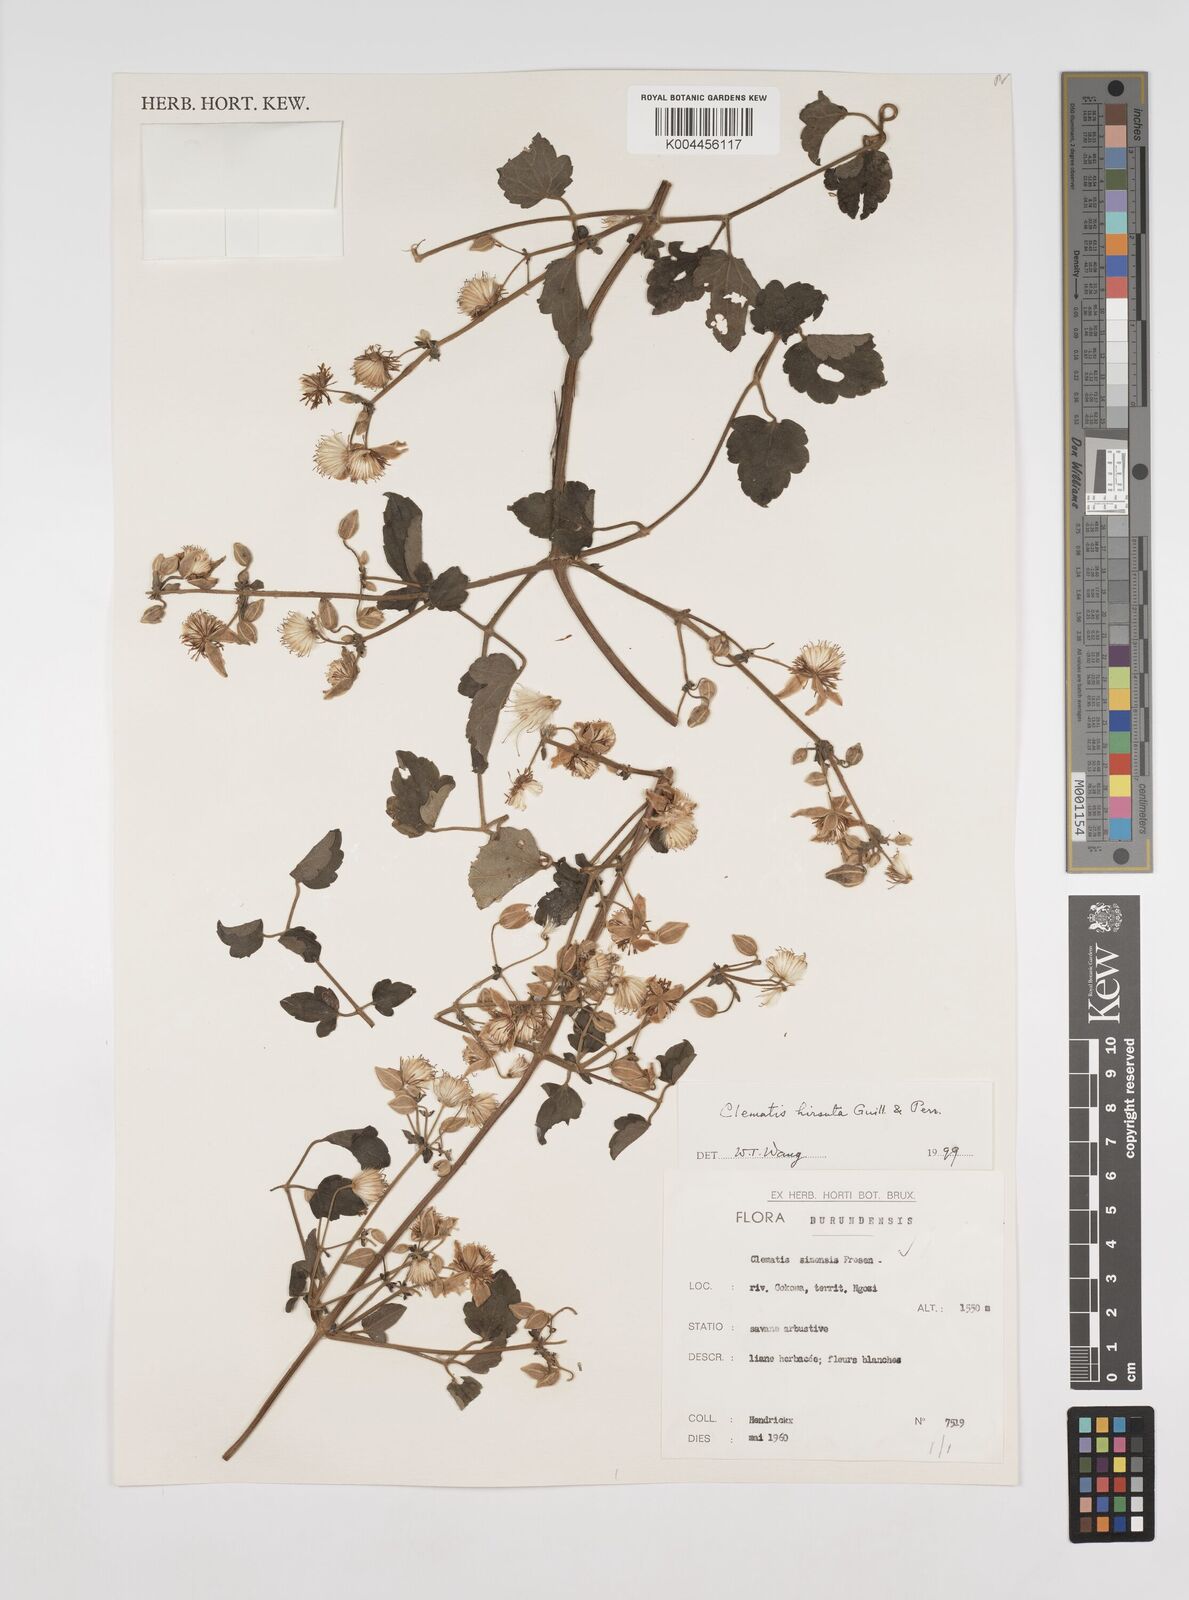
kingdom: Plantae
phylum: Tracheophyta
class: Magnoliopsida
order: Ranunculales
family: Ranunculaceae
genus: Clematis
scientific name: Clematis simensis
